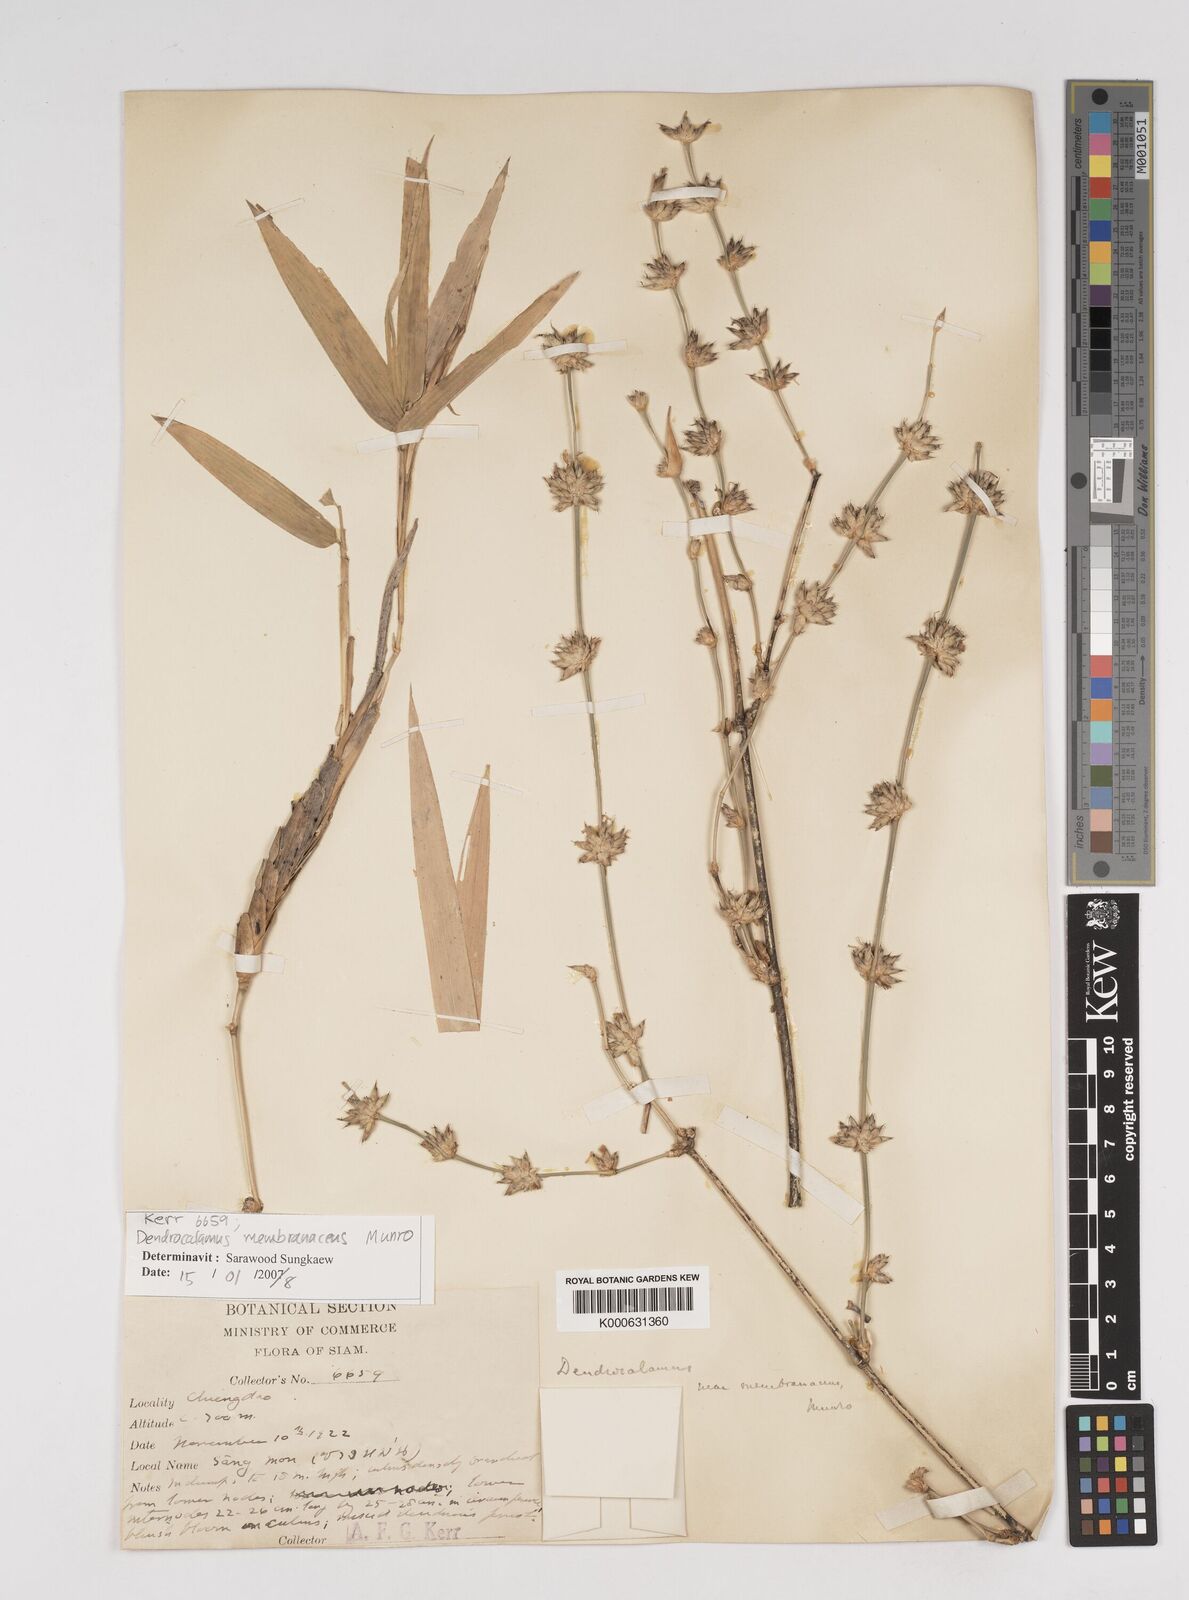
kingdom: Plantae
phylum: Tracheophyta
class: Liliopsida
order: Poales
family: Poaceae
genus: Dendrocalamus
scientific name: Dendrocalamus membranaceus
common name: White bamboo
